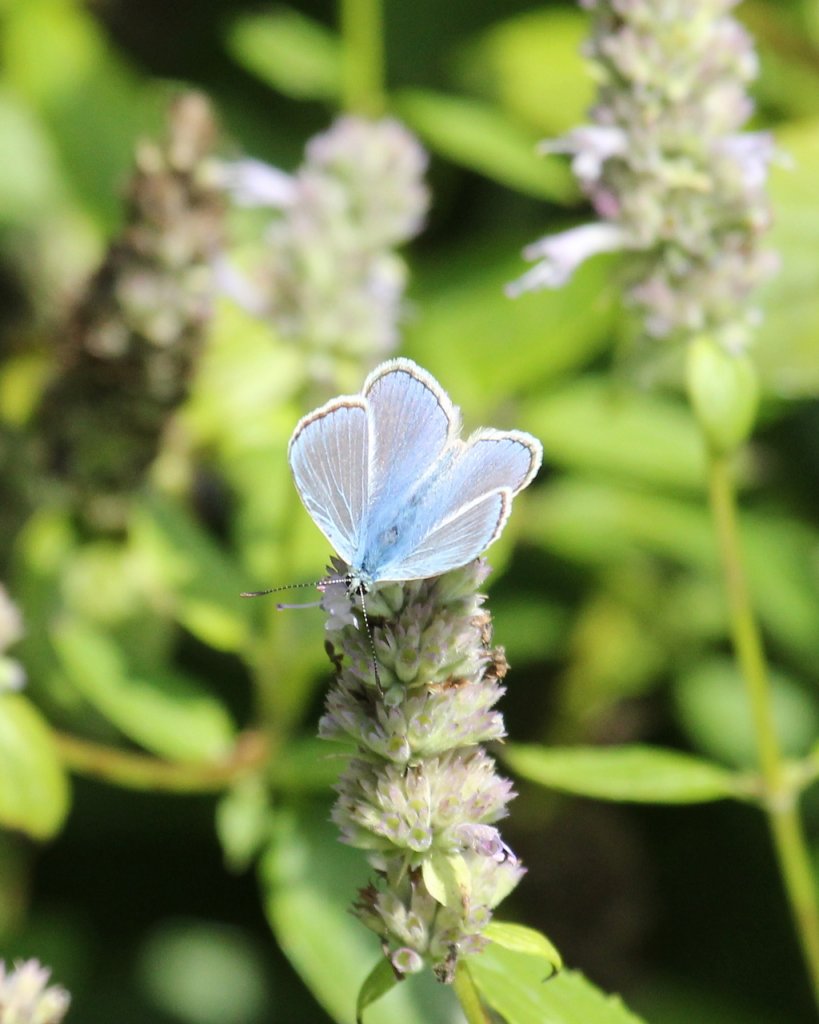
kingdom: Animalia
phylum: Arthropoda
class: Insecta
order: Lepidoptera
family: Lycaenidae
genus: Polyommatus
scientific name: Polyommatus icarus
